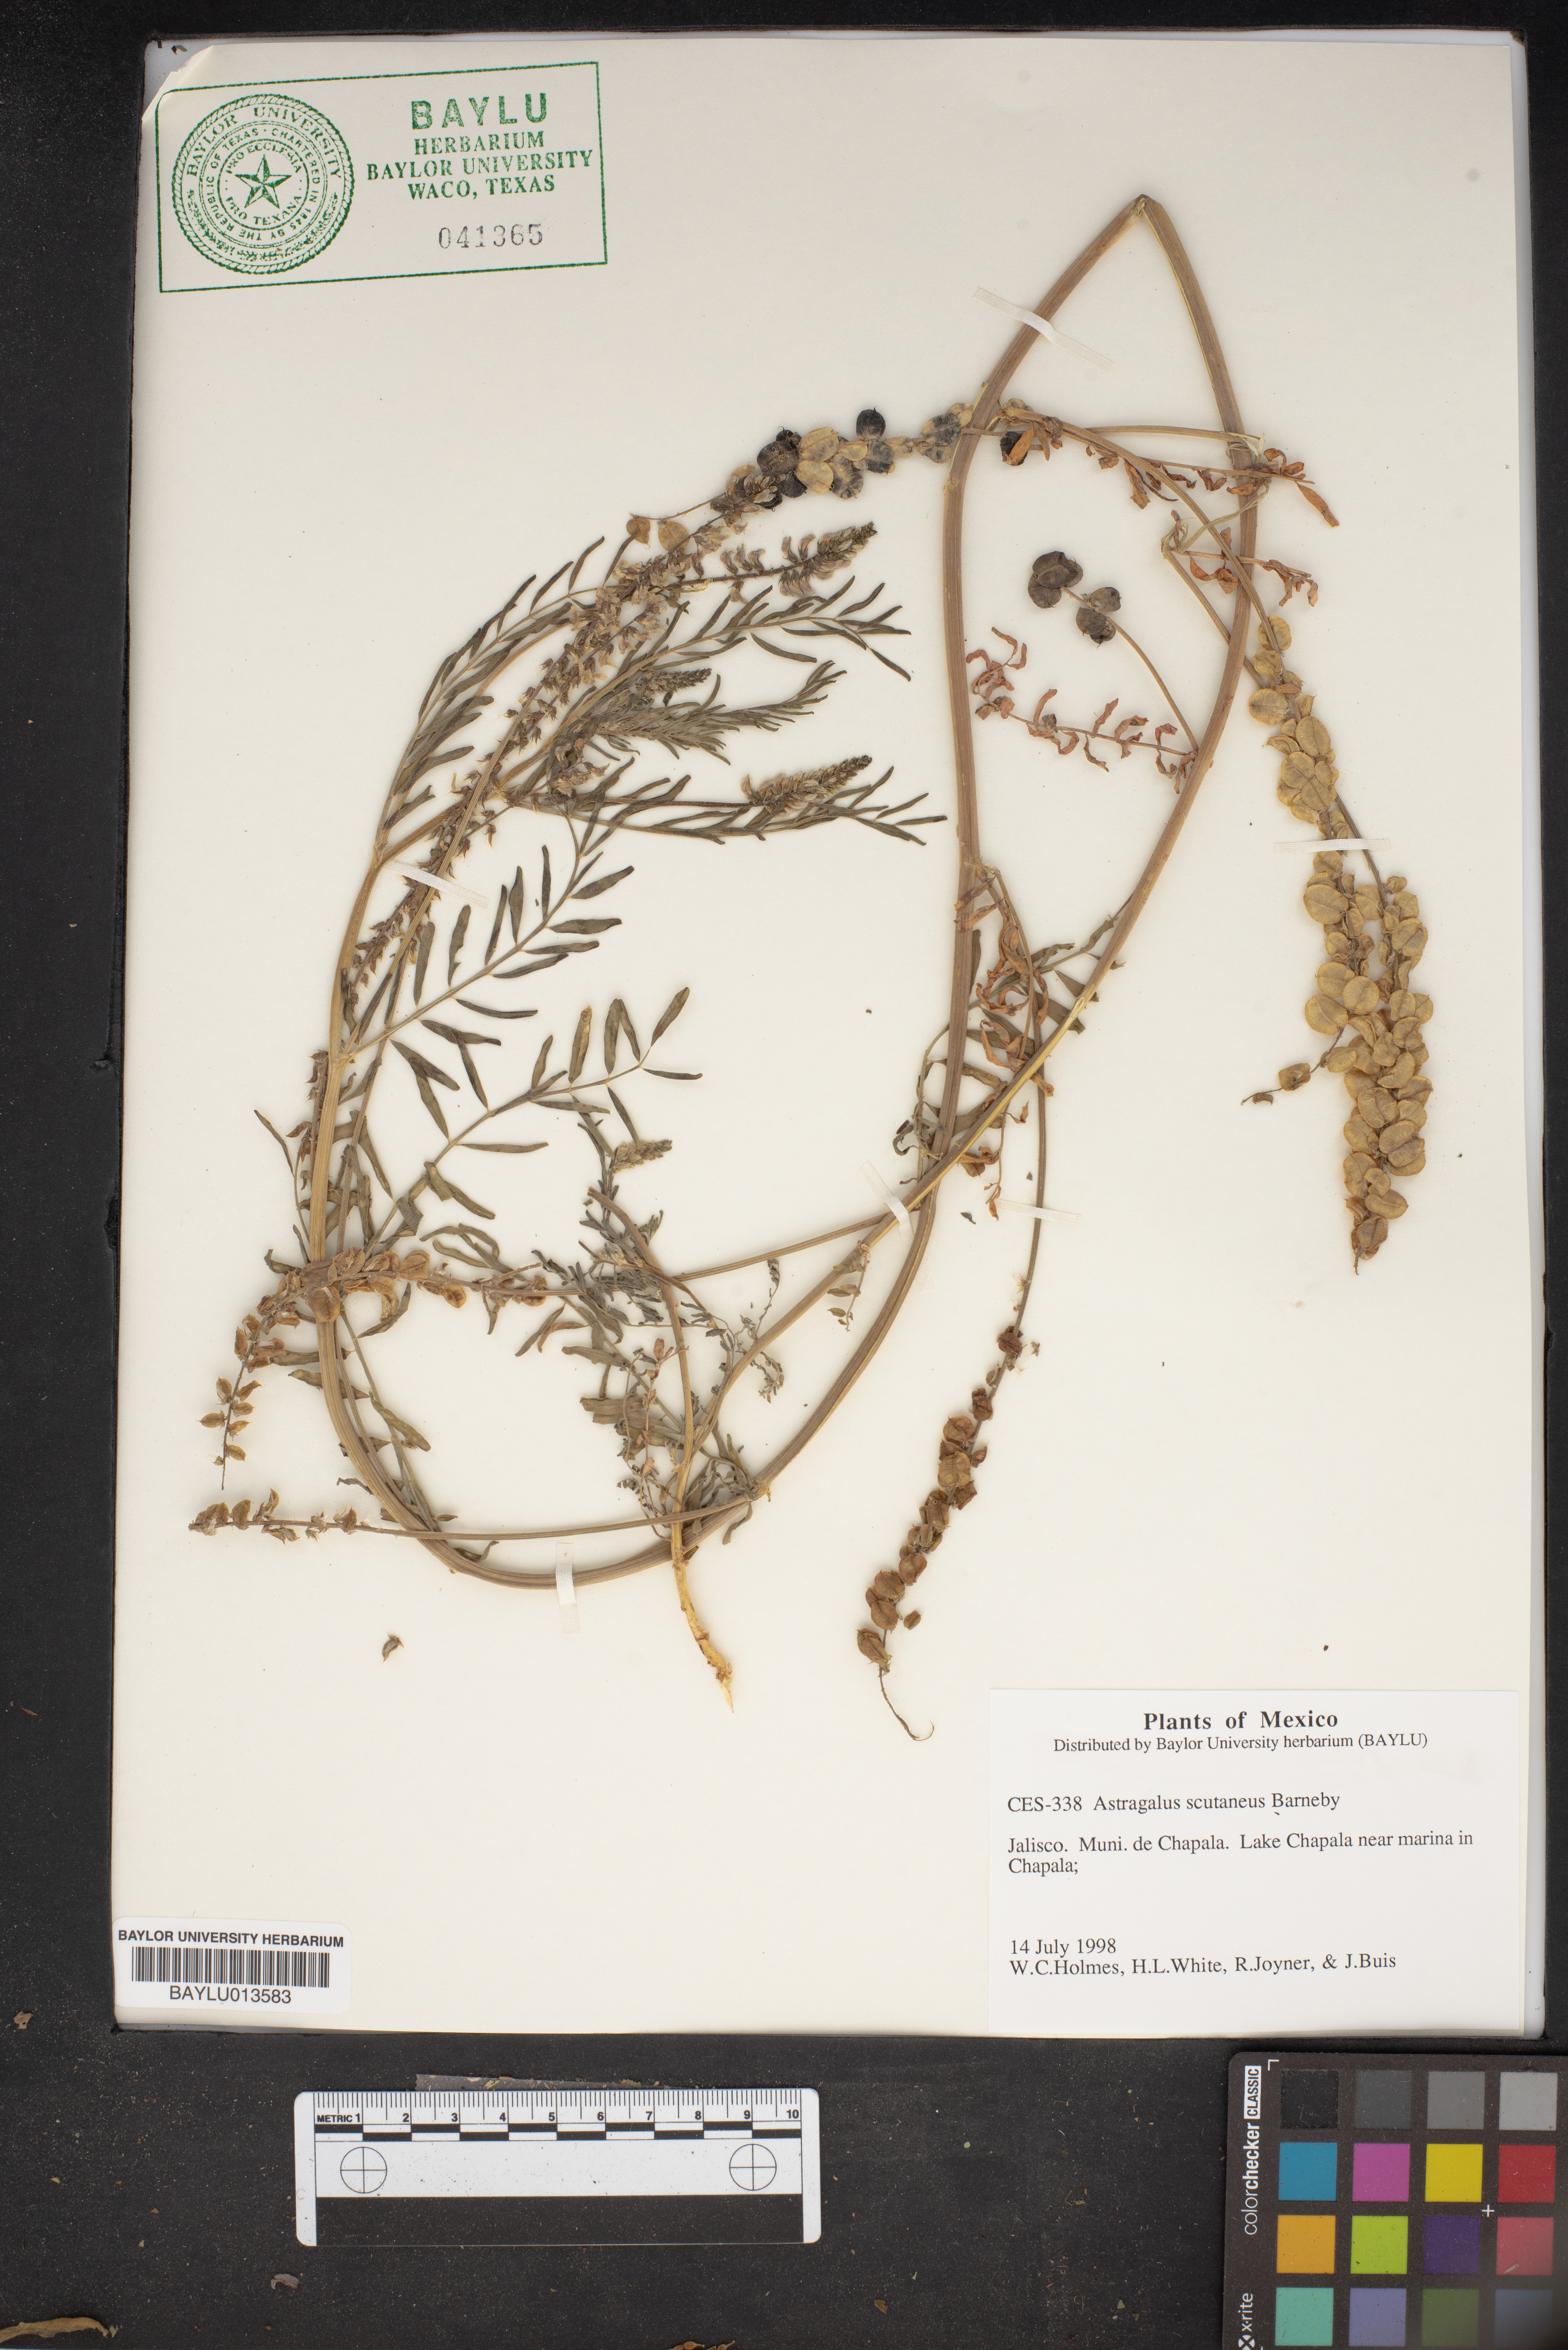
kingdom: Plantae
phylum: Tracheophyta
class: Magnoliopsida
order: Fabales
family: Fabaceae
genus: Astragalus
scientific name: Astragalus scutaneus
